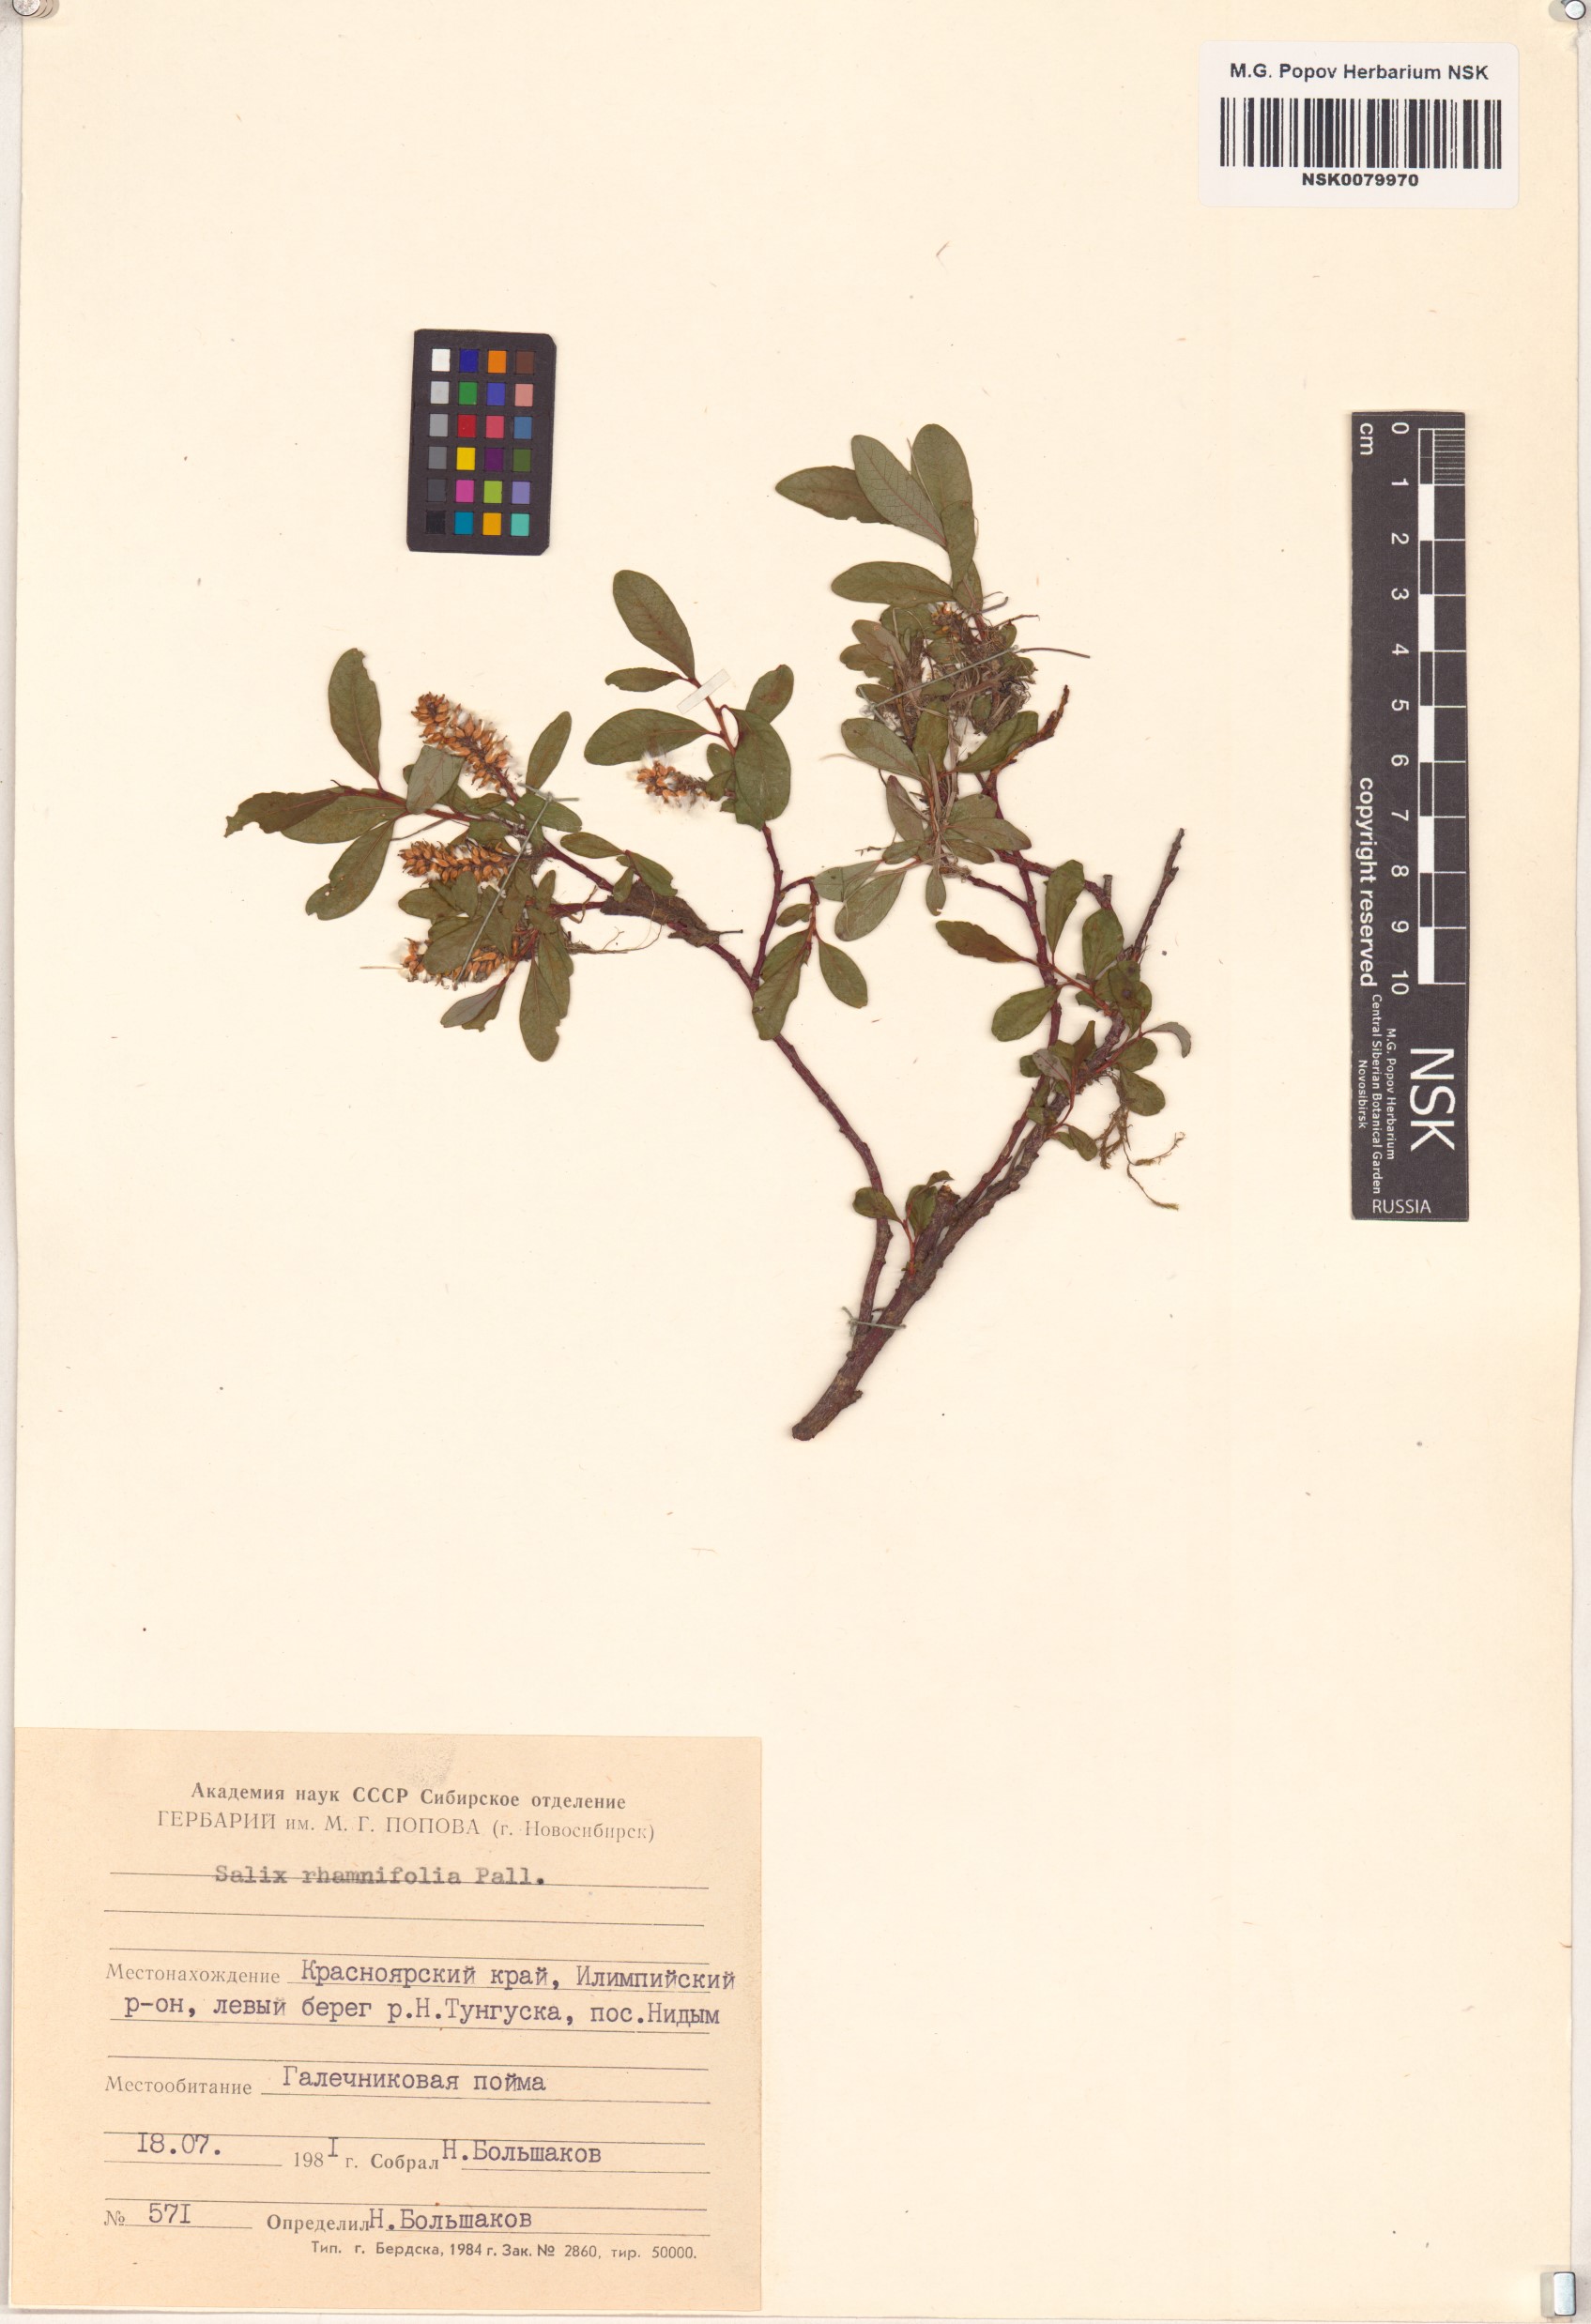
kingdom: Plantae
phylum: Tracheophyta
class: Magnoliopsida
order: Malpighiales
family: Salicaceae
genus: Salix
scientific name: Salix rhamnifolia
